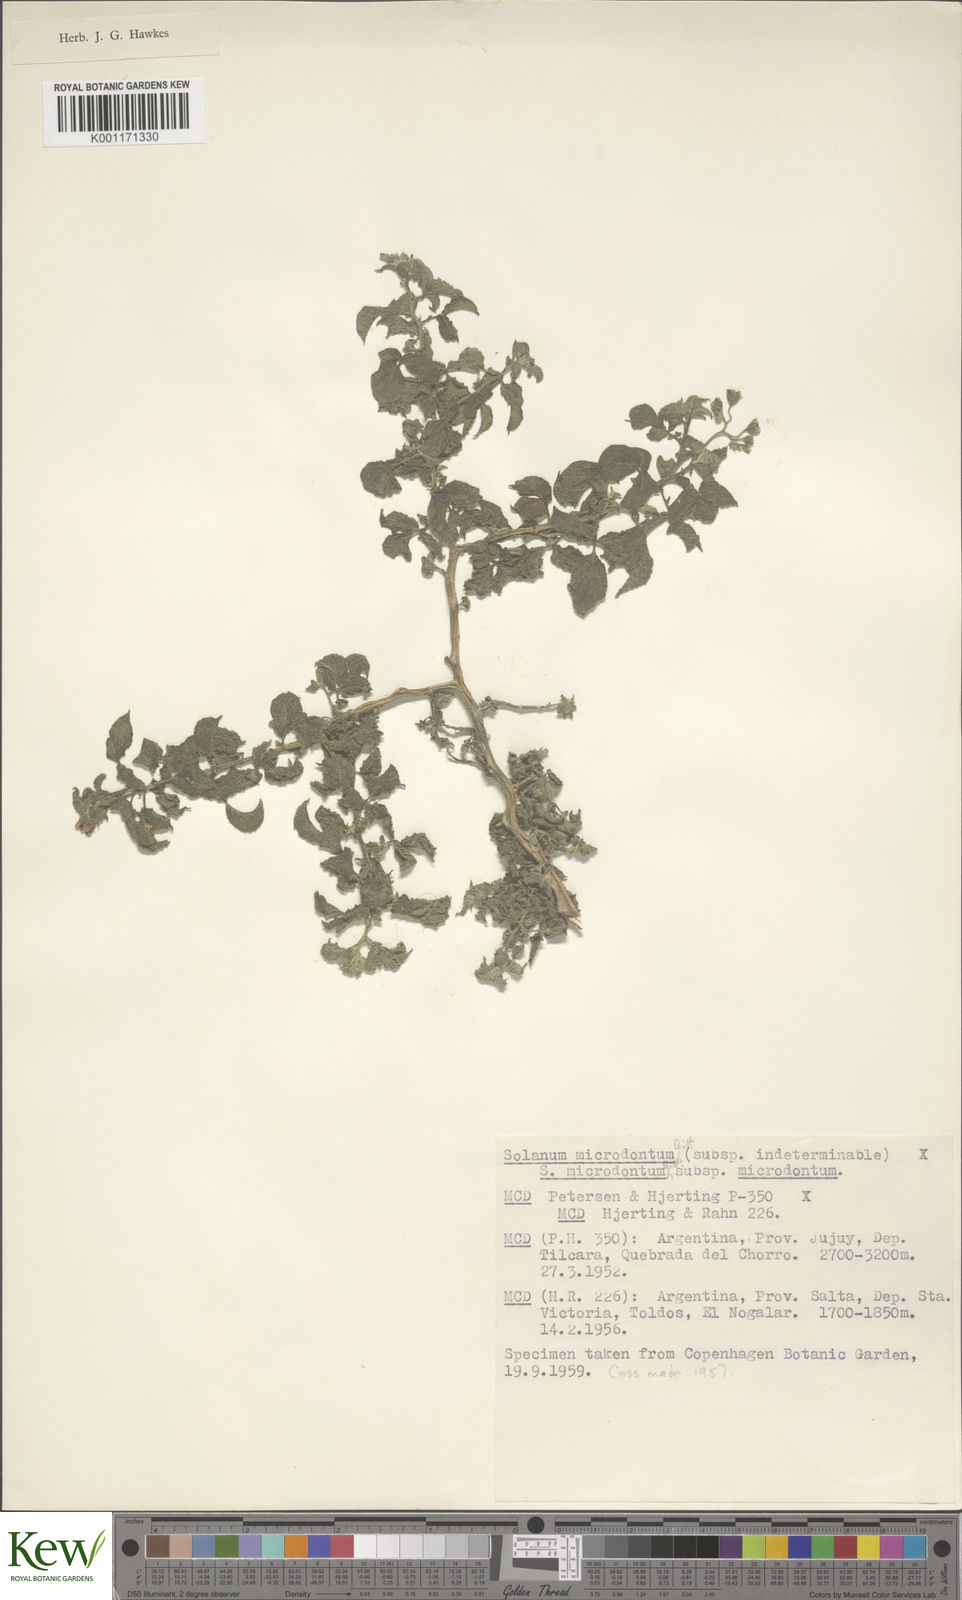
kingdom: Plantae
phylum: Tracheophyta
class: Magnoliopsida
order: Solanales
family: Solanaceae
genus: Solanum
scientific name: Solanum microdontum
